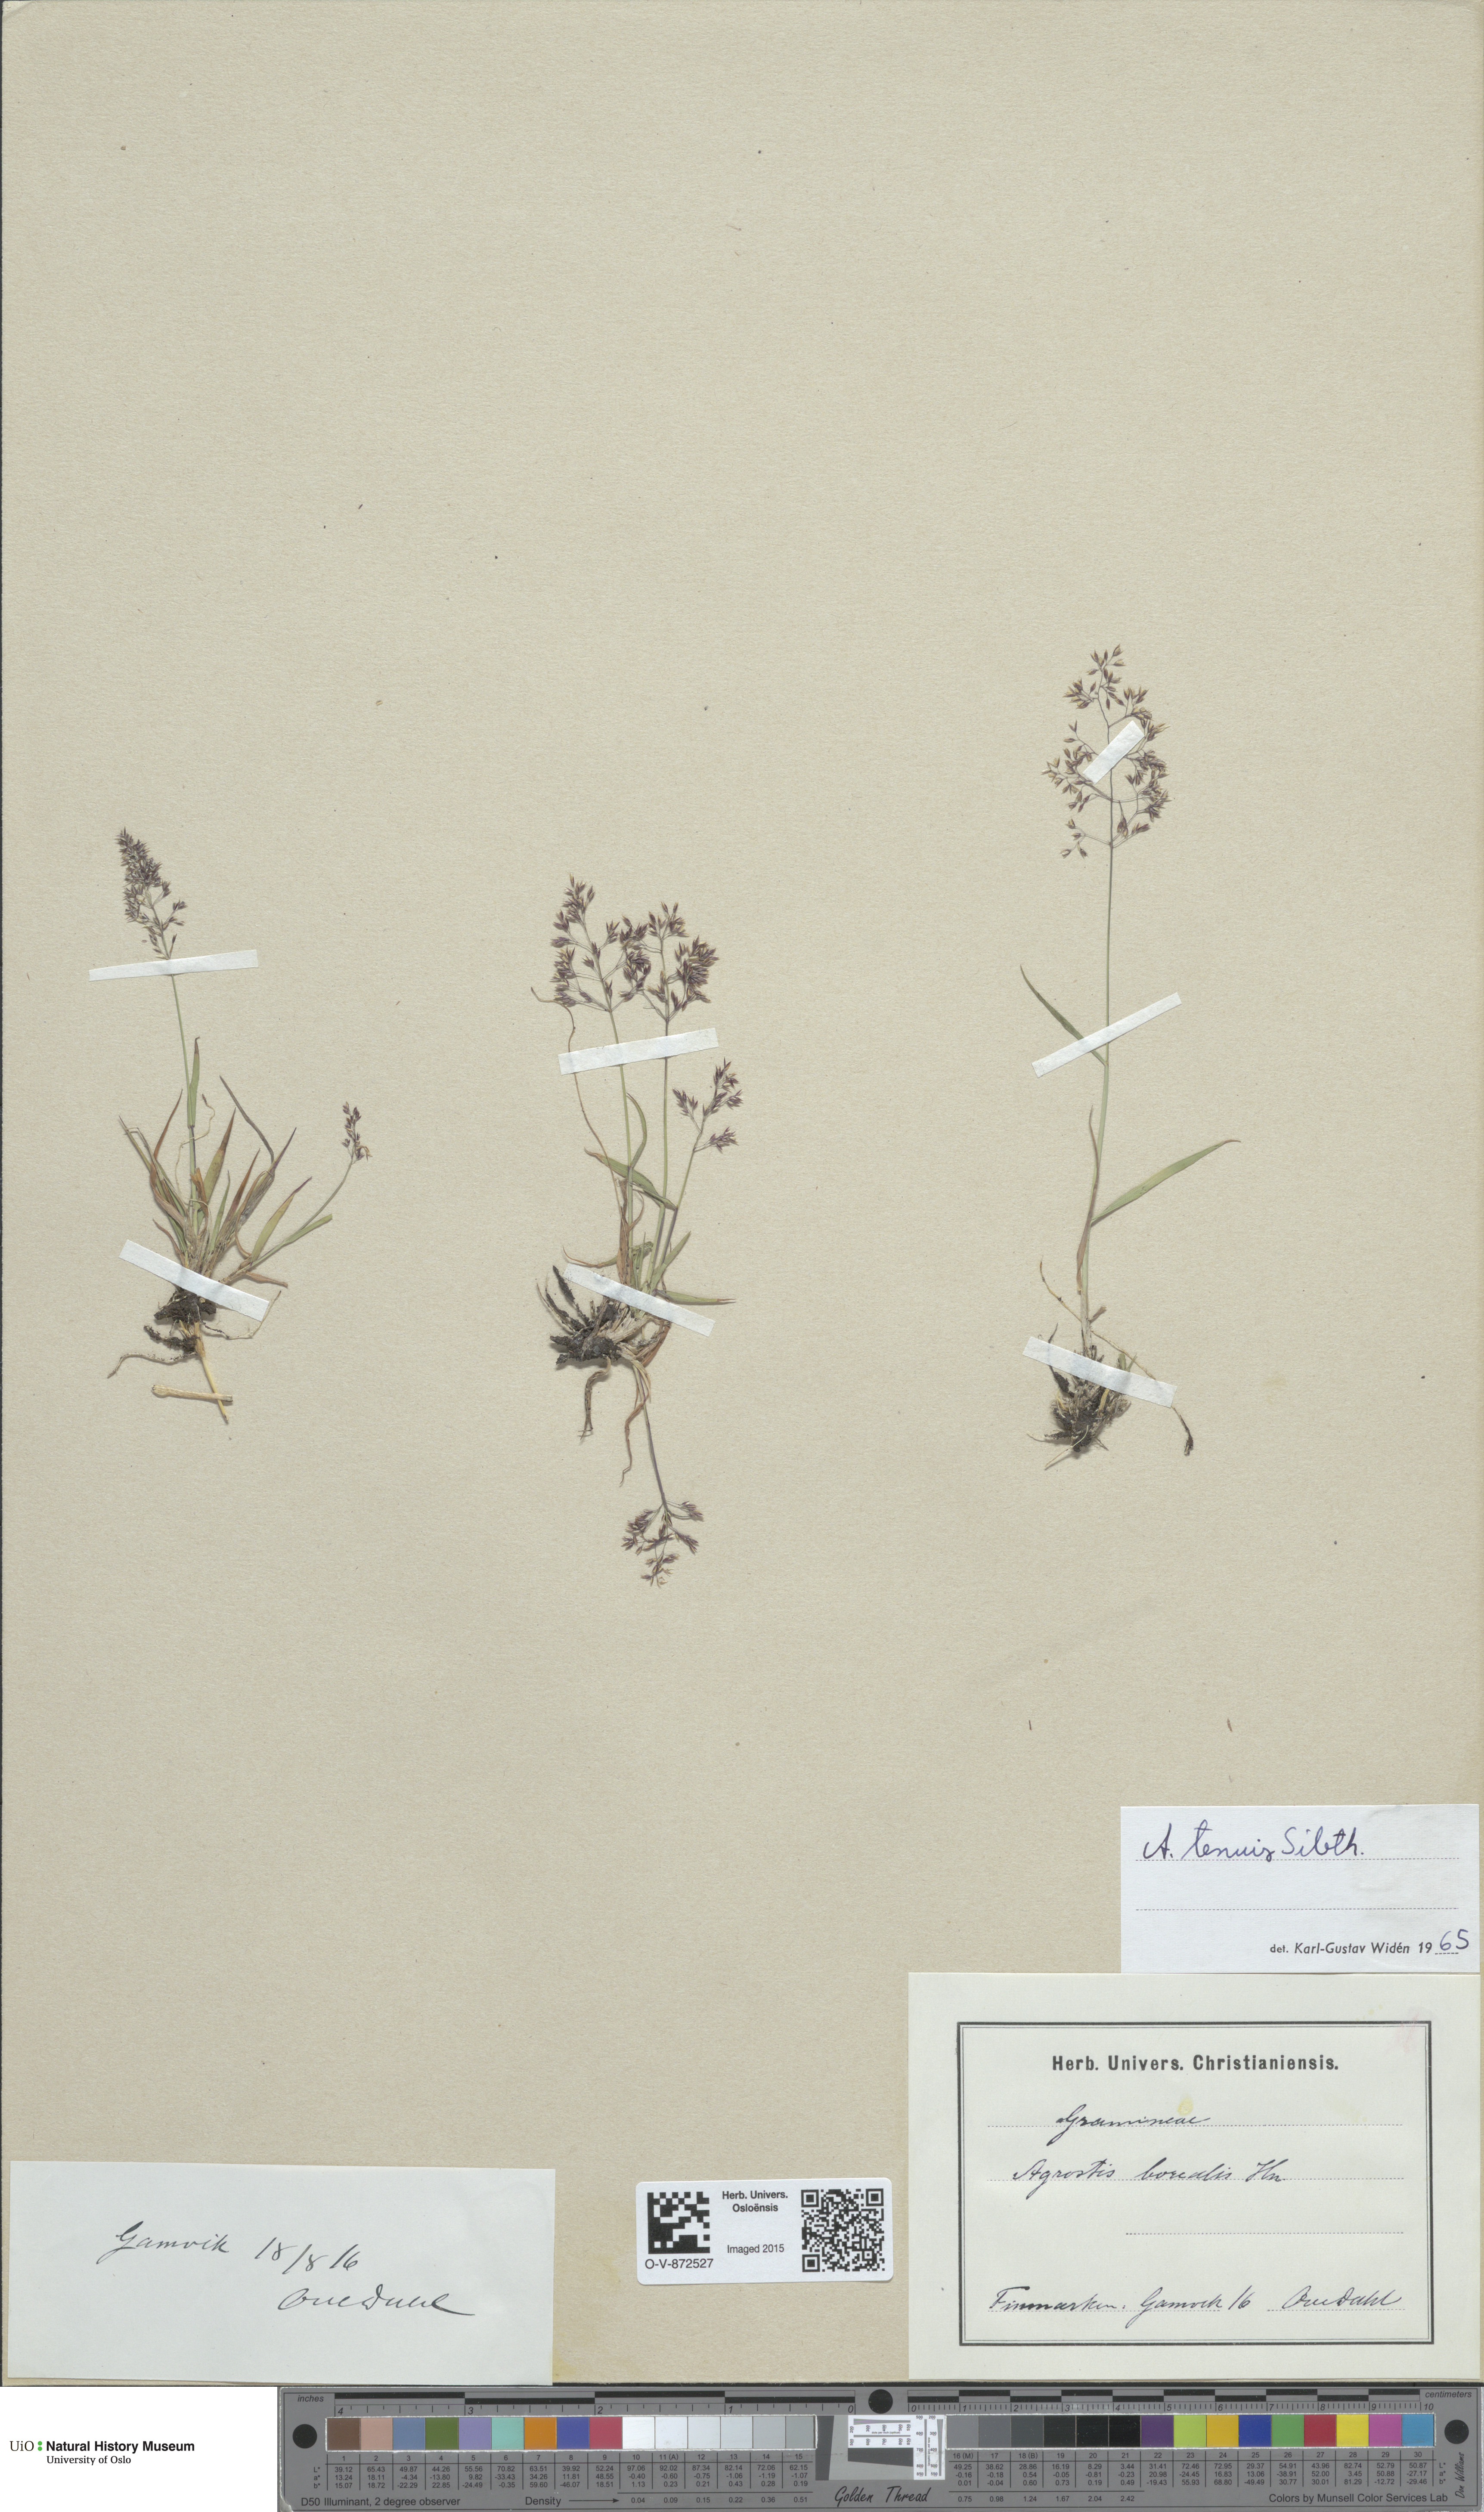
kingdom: Plantae
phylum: Tracheophyta
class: Liliopsida
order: Poales
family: Poaceae
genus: Agrostis
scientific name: Agrostis capillaris
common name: Colonial bentgrass
